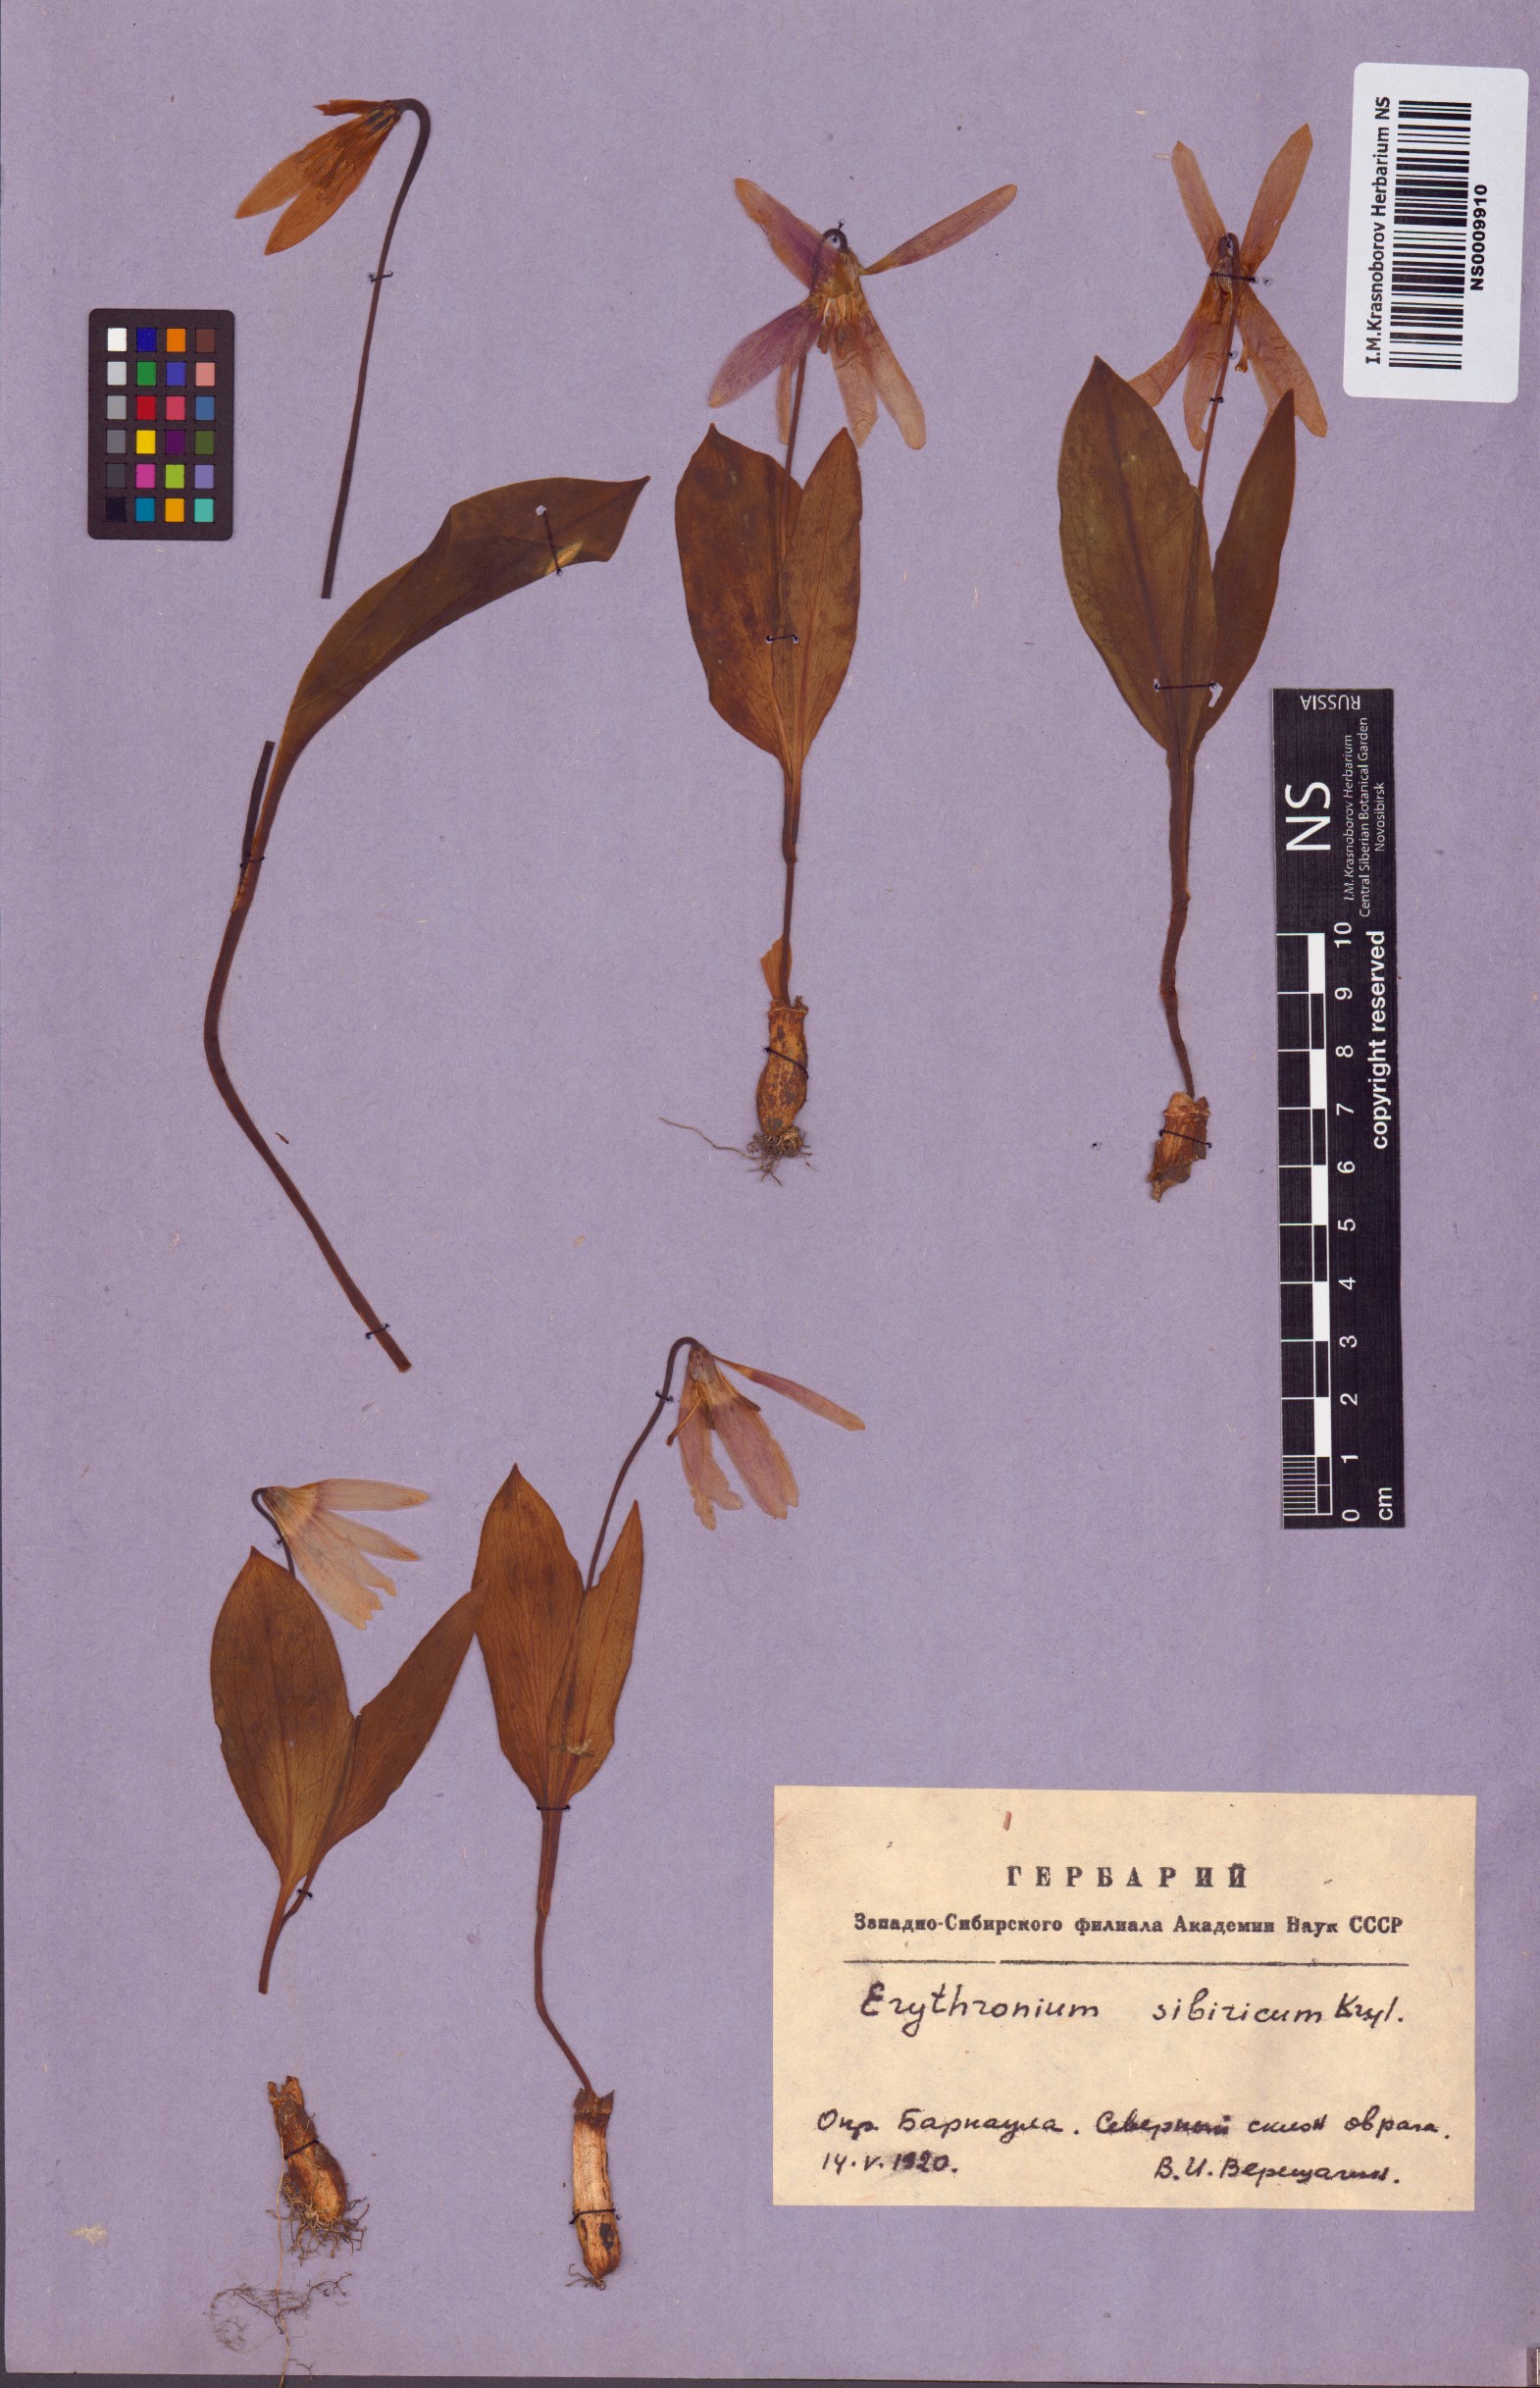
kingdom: Plantae
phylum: Tracheophyta
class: Liliopsida
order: Liliales
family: Liliaceae
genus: Erythronium
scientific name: Erythronium sibiricum
